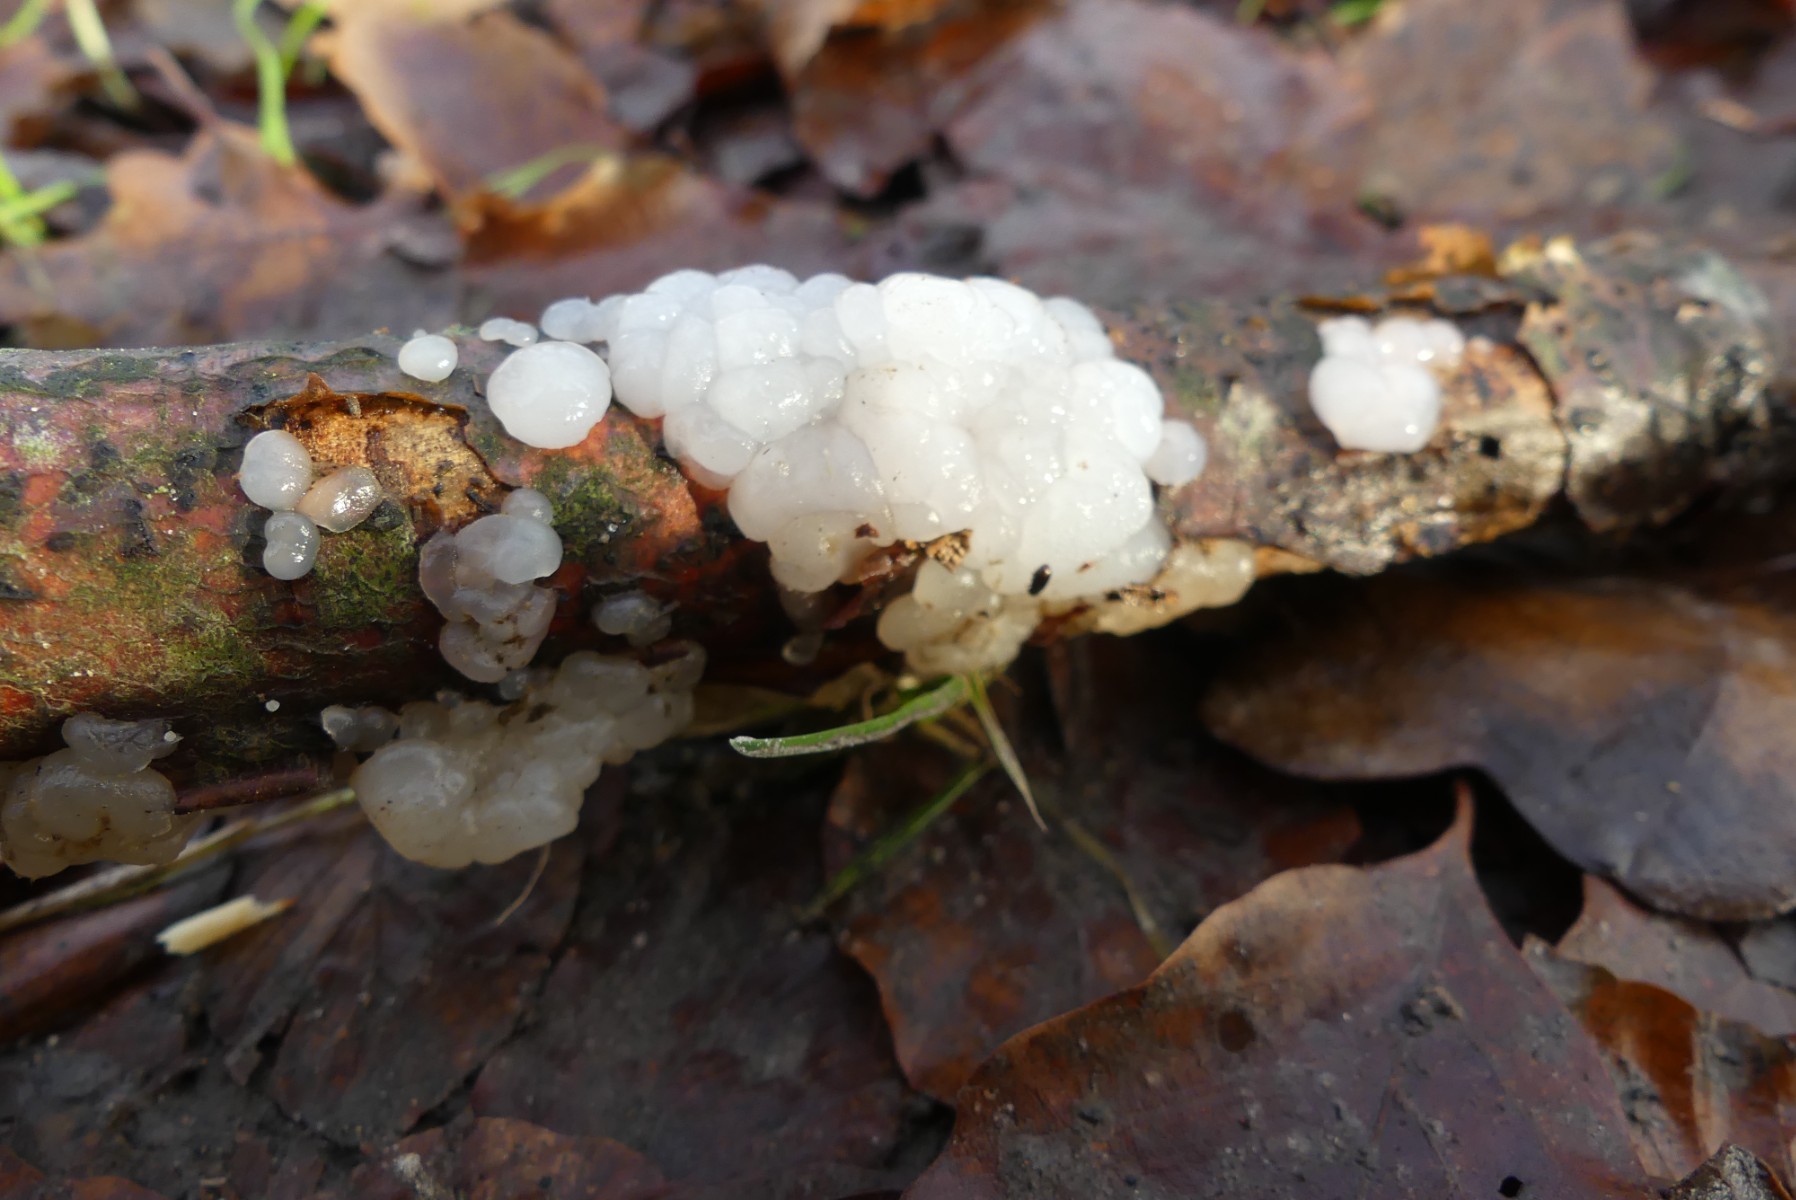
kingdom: Fungi
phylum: Basidiomycota
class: Agaricomycetes
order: Auriculariales
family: Auriculariaceae
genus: Exidia
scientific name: Exidia thuretiana
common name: hvidlig bævretop
